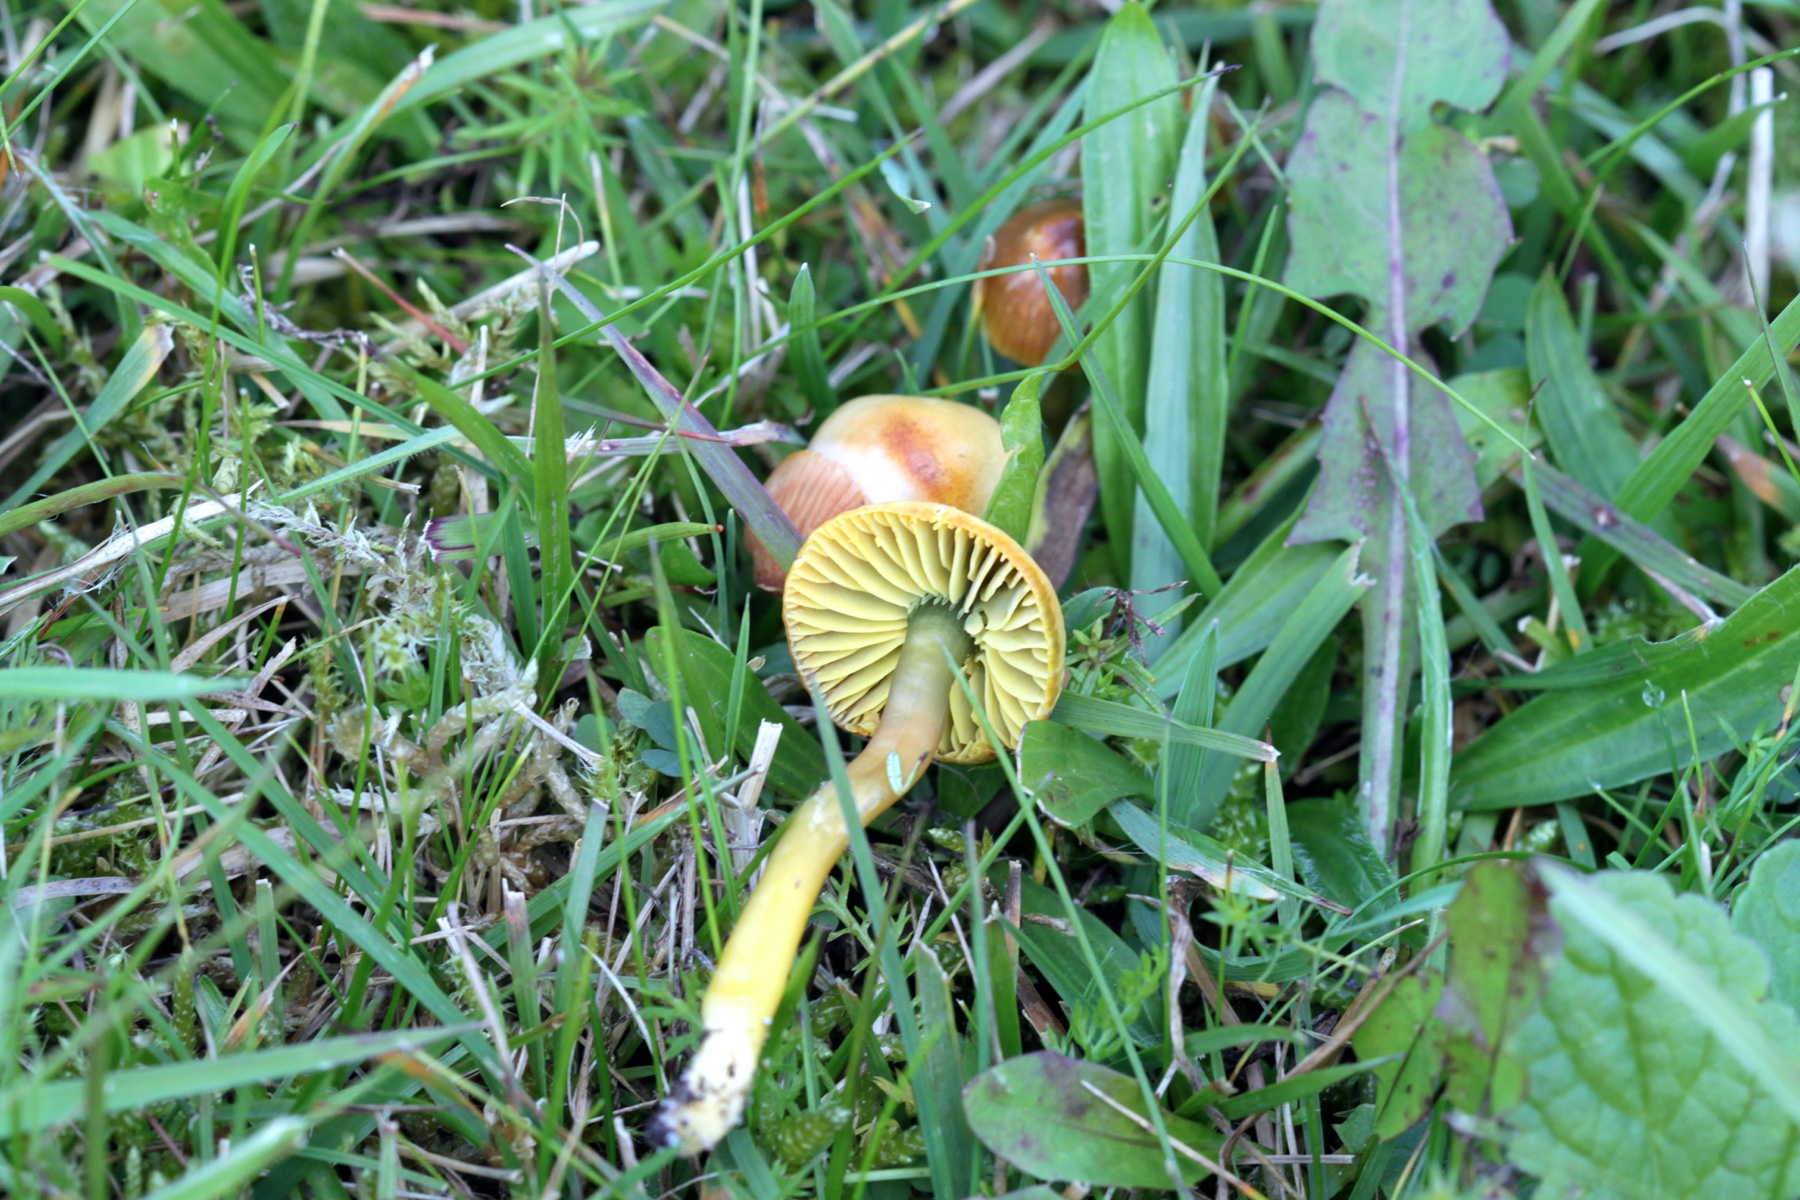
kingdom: Fungi
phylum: Basidiomycota
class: Agaricomycetes
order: Agaricales
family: Hygrophoraceae
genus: Gliophorus
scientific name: Gliophorus psittacinus
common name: papegøje-vokshat
